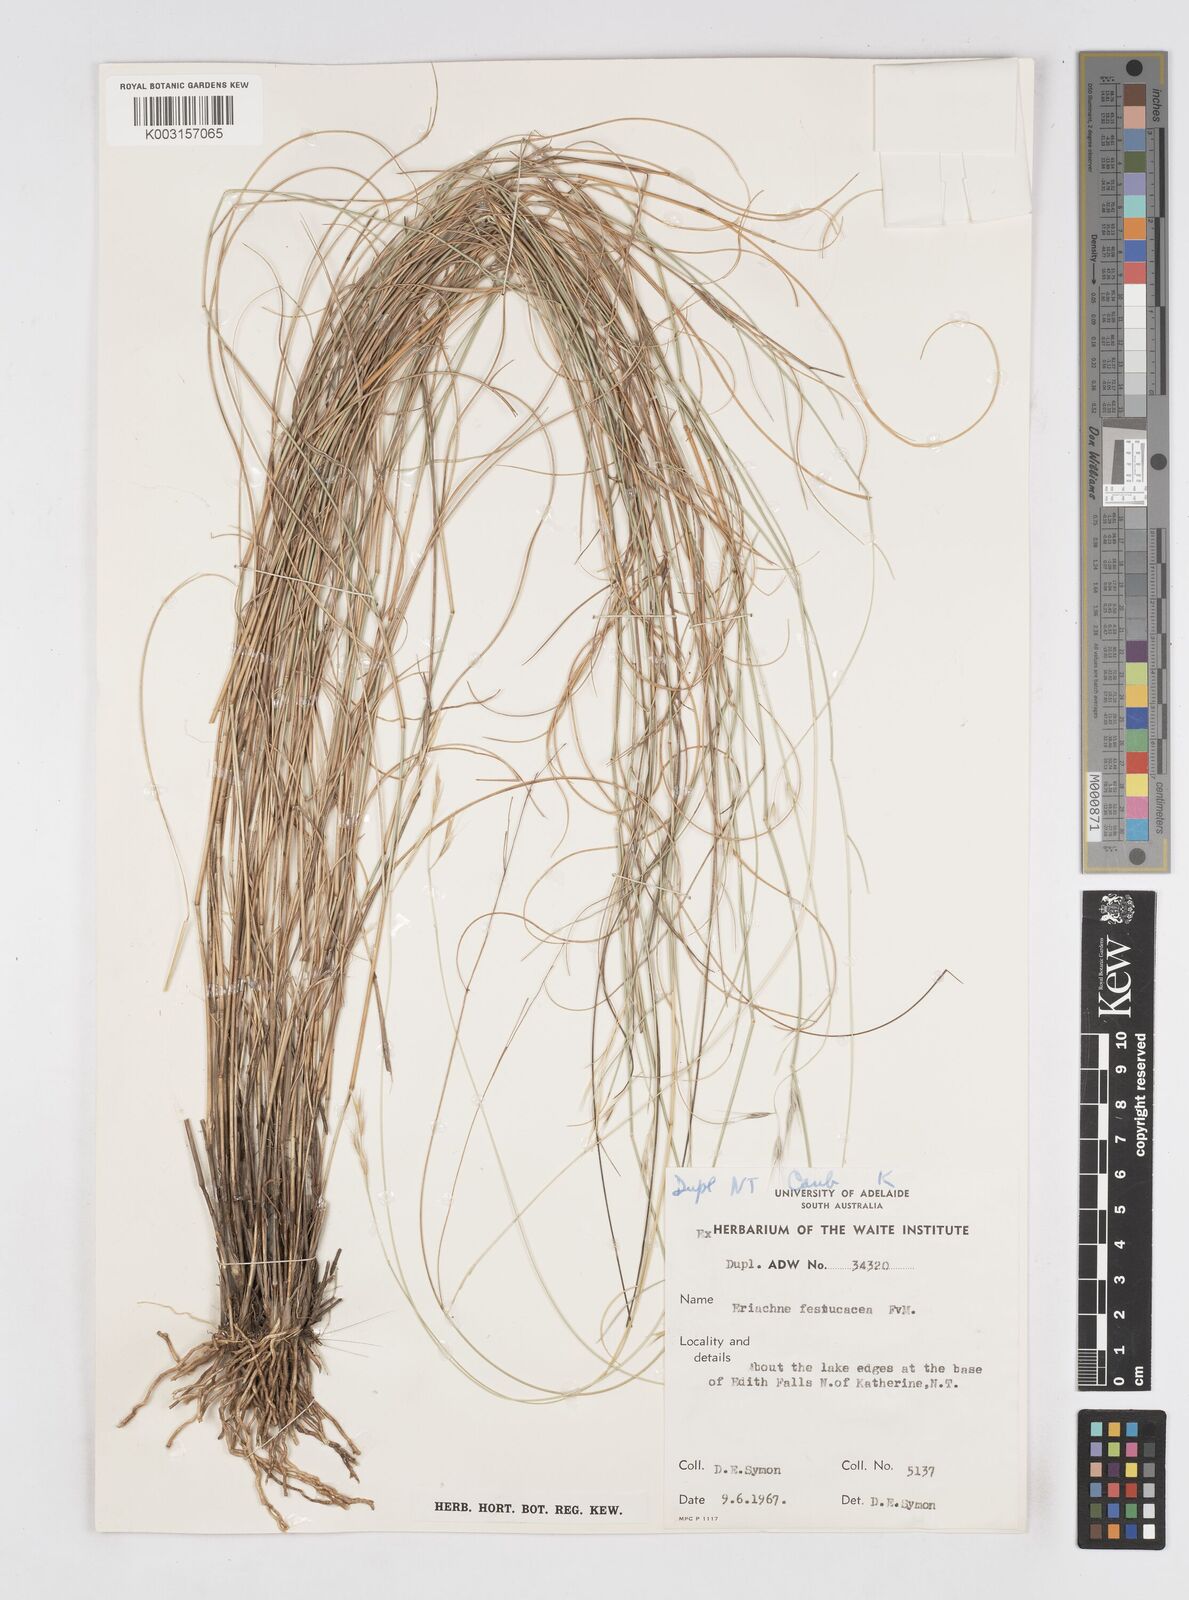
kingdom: Plantae
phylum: Tracheophyta
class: Liliopsida
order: Poales
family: Poaceae
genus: Eriachne
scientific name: Eriachne festucacea
